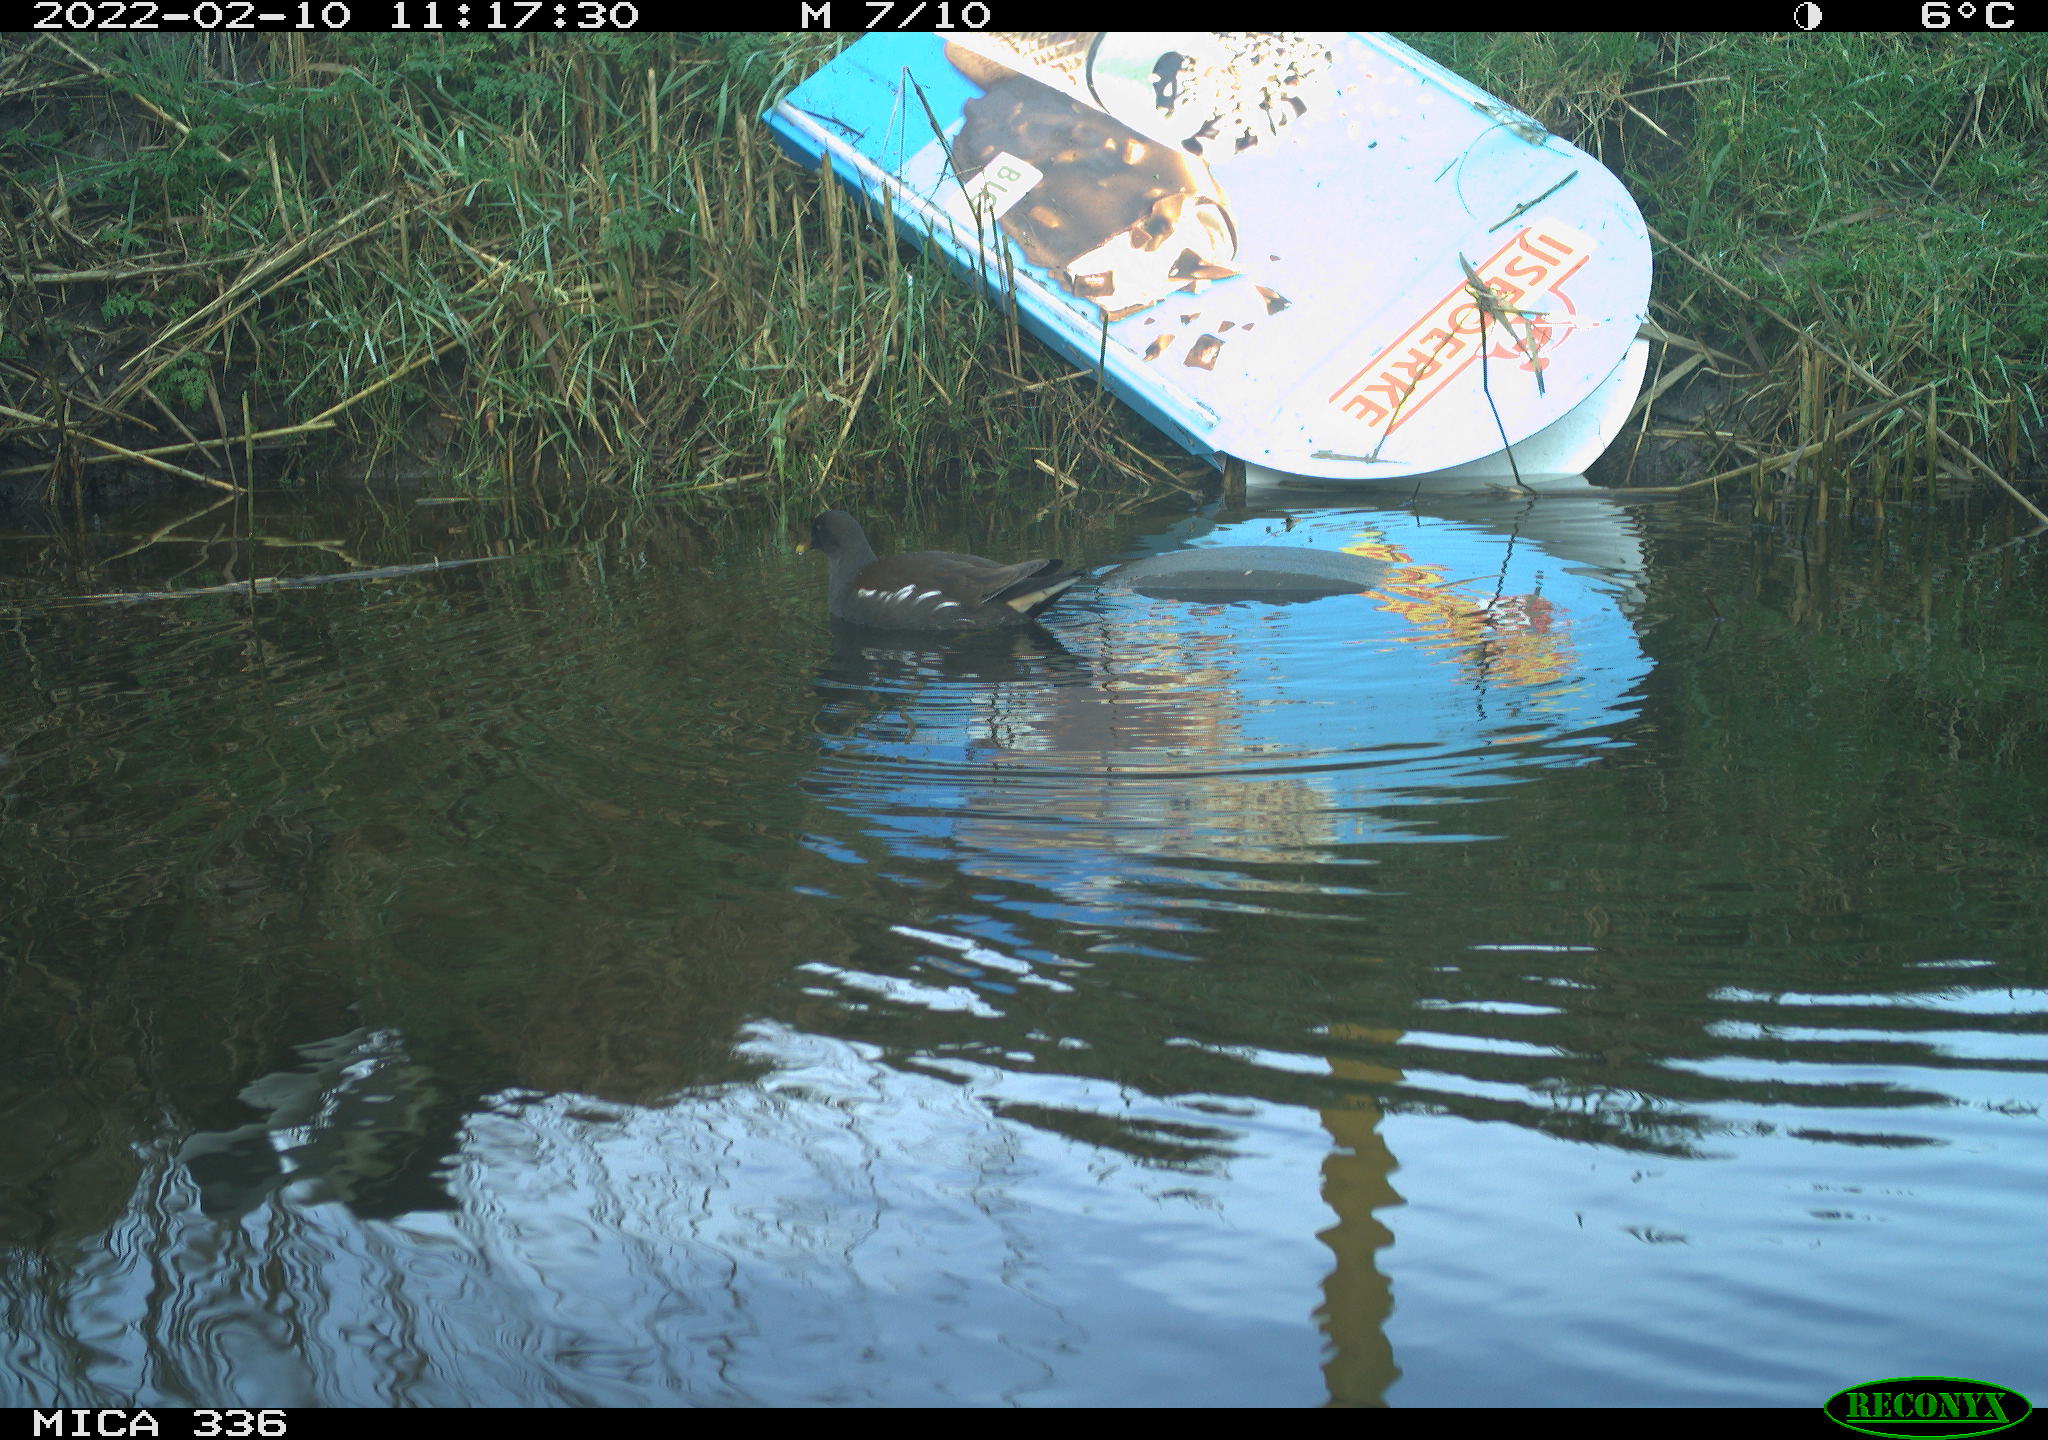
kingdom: Animalia
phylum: Chordata
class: Aves
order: Gruiformes
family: Rallidae
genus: Gallinula
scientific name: Gallinula chloropus
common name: Common moorhen
